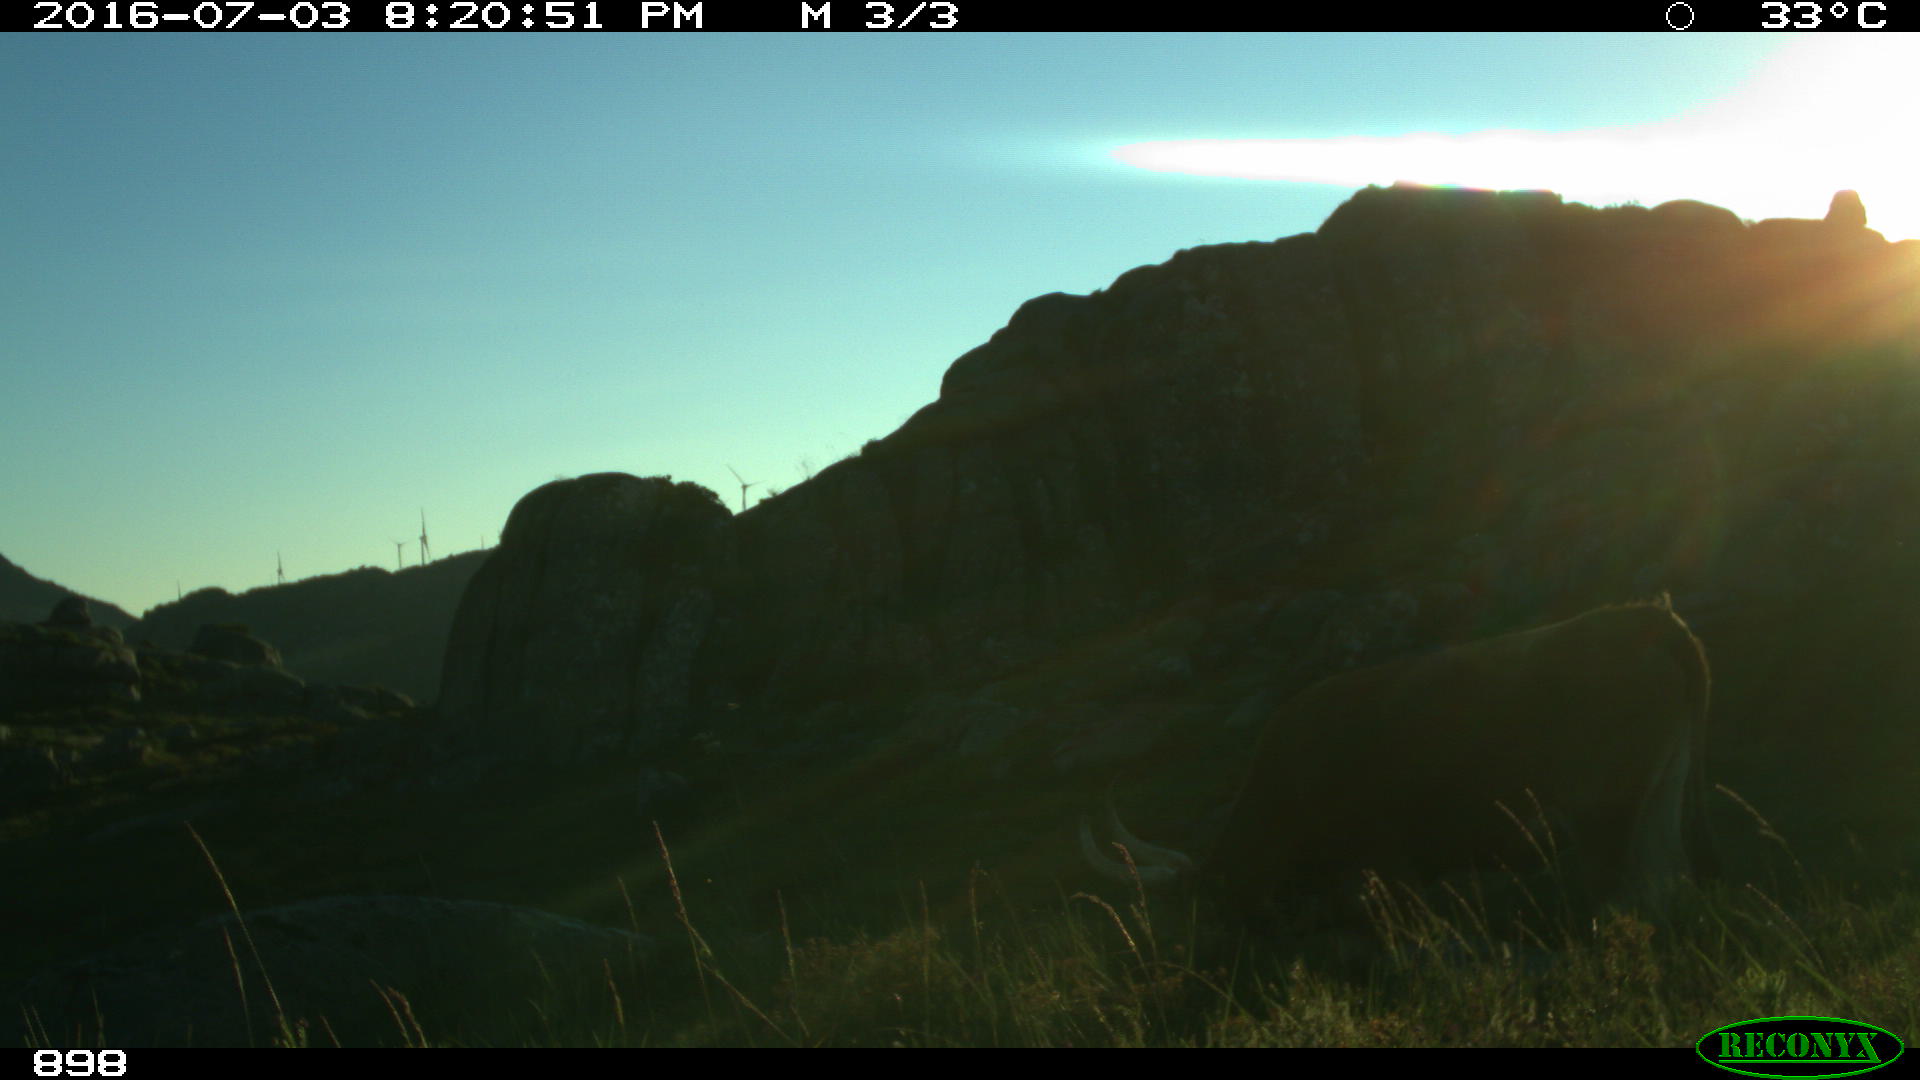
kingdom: Animalia
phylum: Chordata
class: Mammalia
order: Artiodactyla
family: Bovidae
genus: Bos
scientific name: Bos taurus
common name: Domesticated cattle
